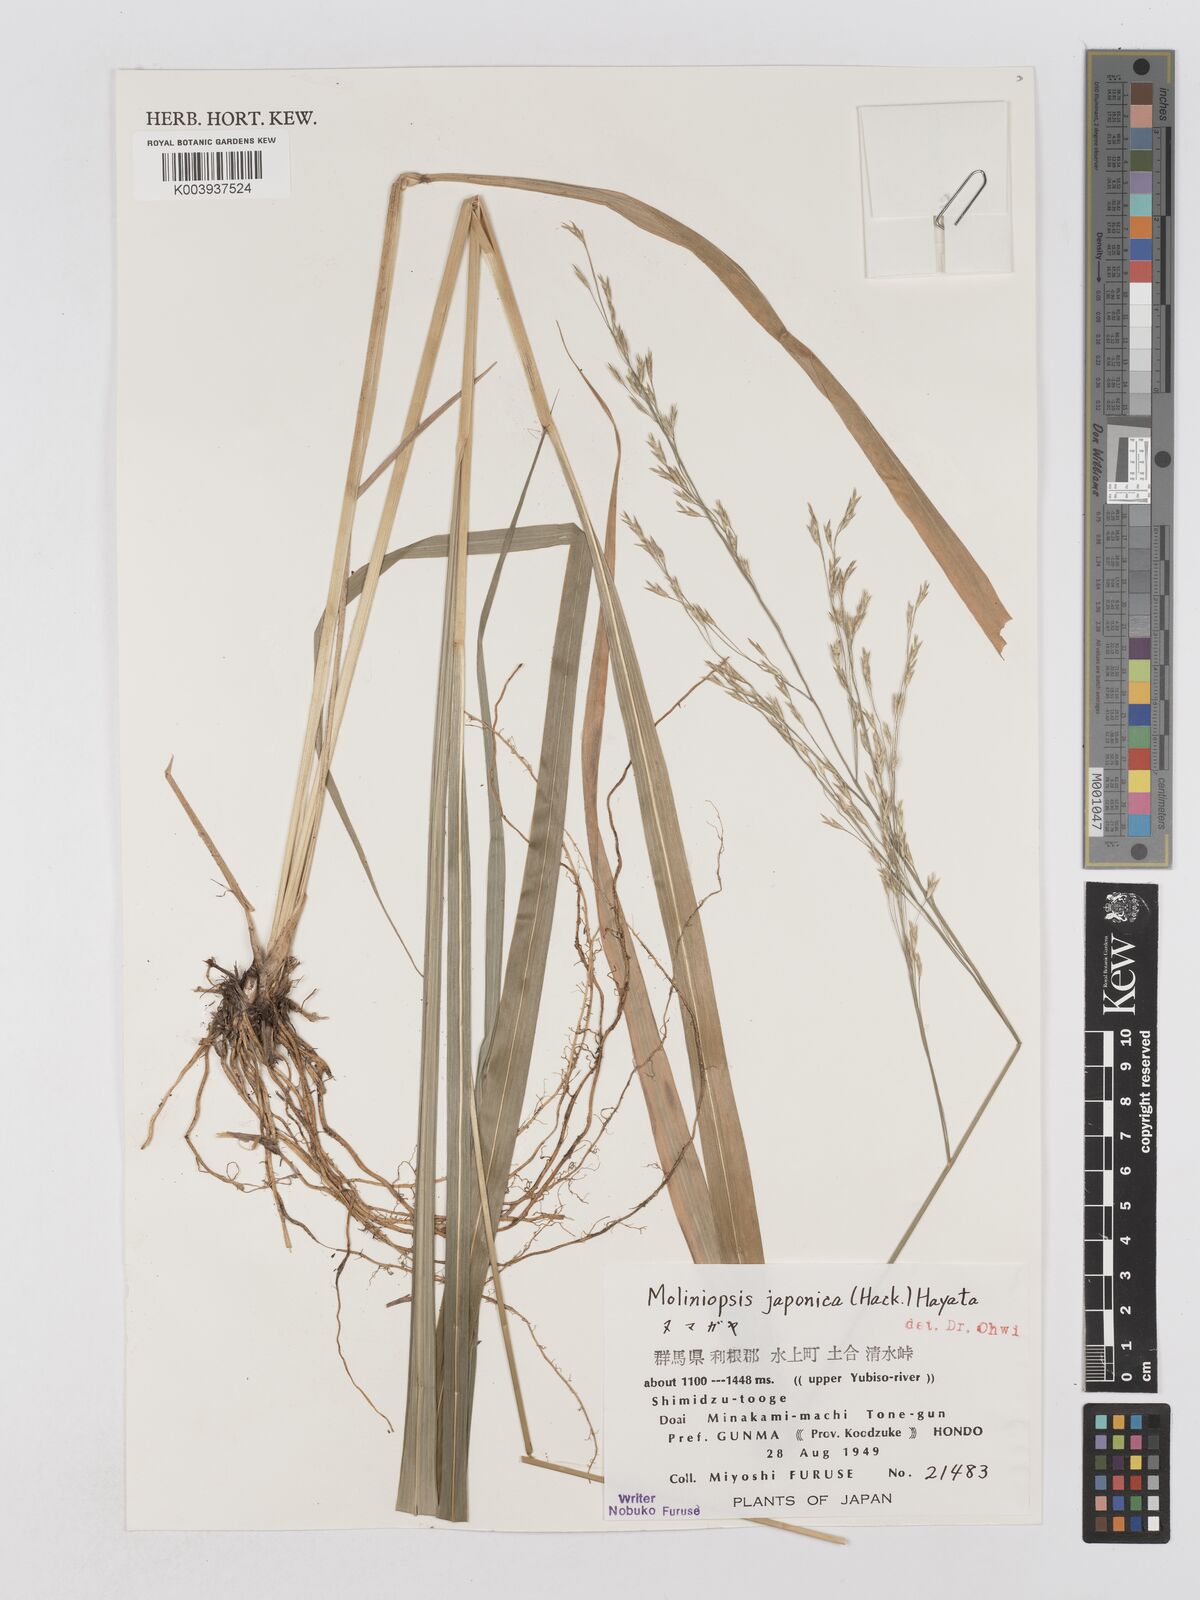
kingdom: Plantae
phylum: Tracheophyta
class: Liliopsida
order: Poales
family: Poaceae
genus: Moliniopsis
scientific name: Moliniopsis japonica
